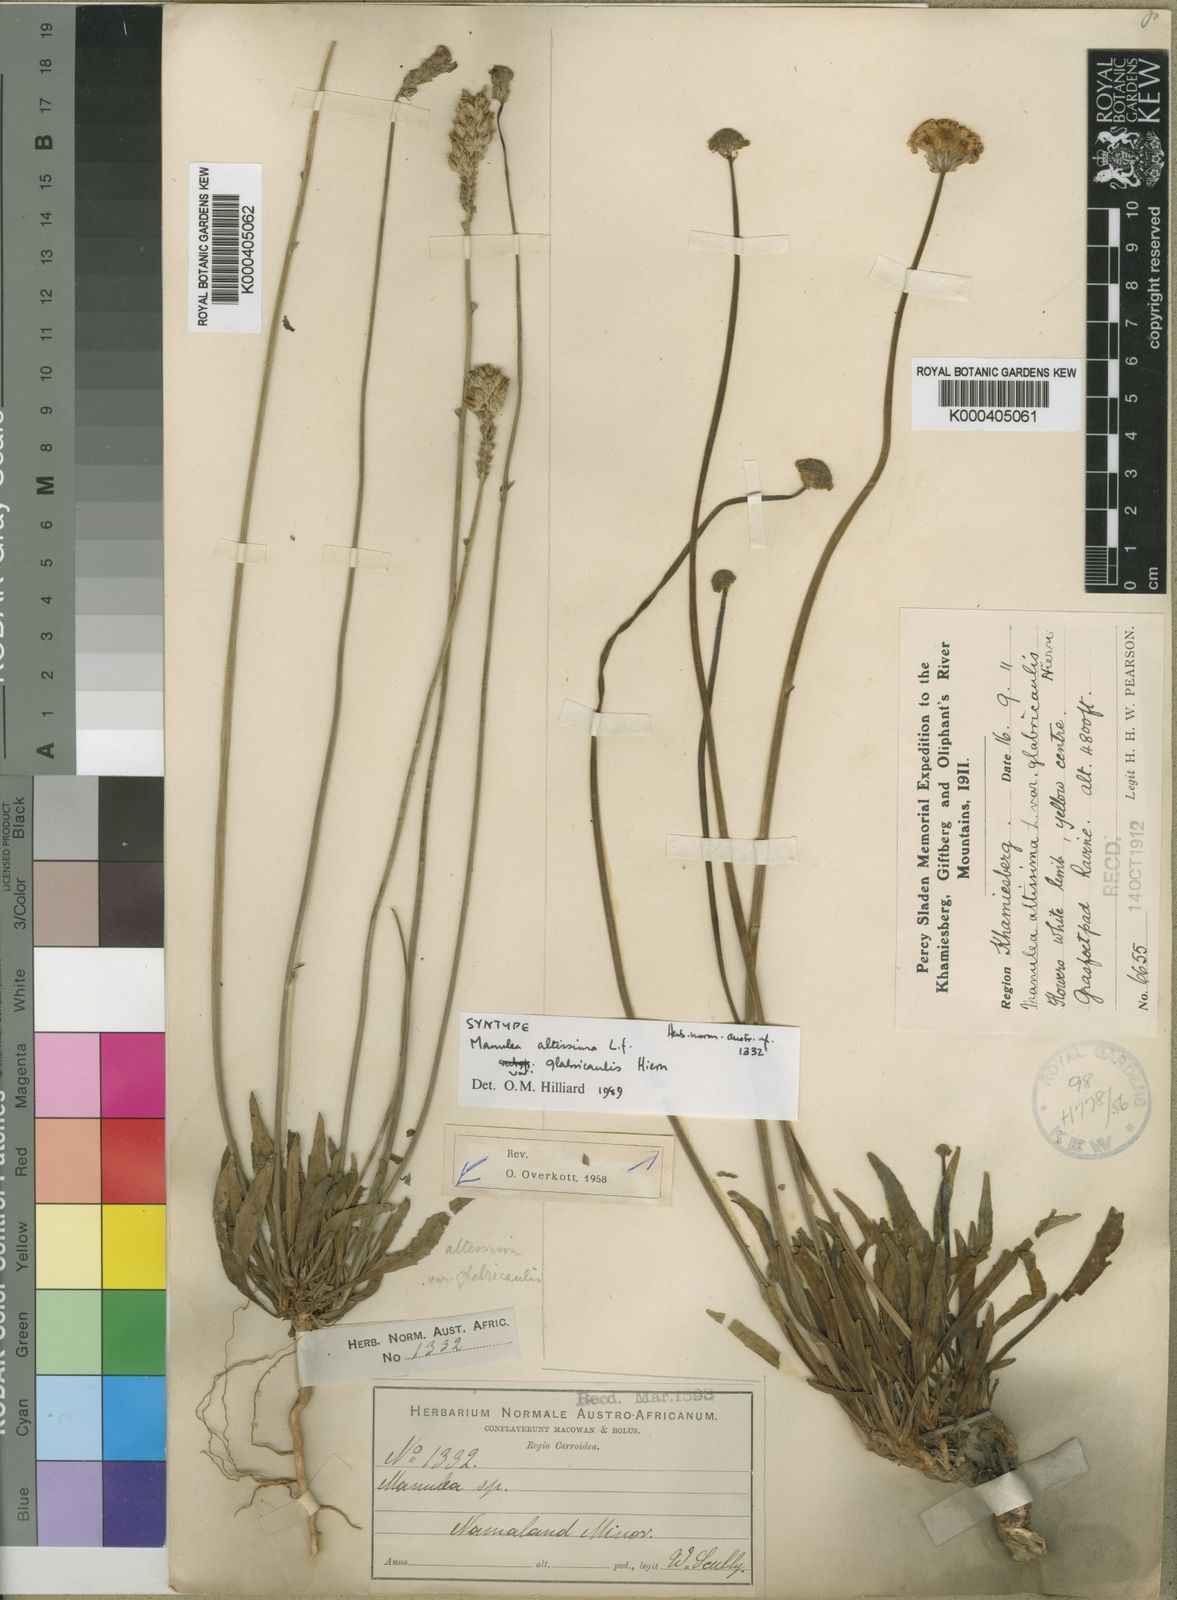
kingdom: Plantae
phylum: Tracheophyta
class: Magnoliopsida
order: Lamiales
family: Scrophulariaceae
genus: Manulea
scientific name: Manulea altissima
